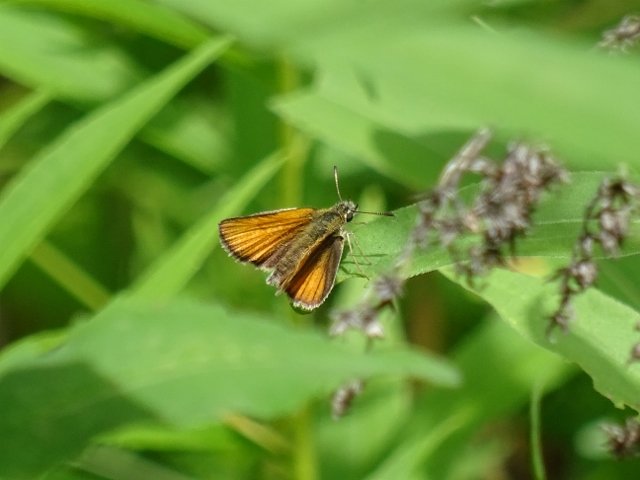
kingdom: Animalia
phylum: Arthropoda
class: Insecta
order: Lepidoptera
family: Hesperiidae
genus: Thymelicus
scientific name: Thymelicus lineola
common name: European Skipper
